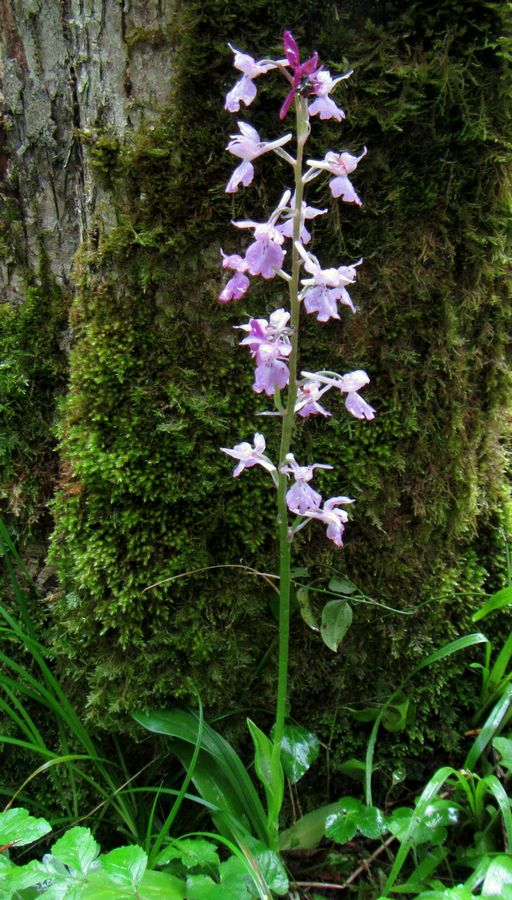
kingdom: Plantae
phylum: Tracheophyta
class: Liliopsida
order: Asparagales
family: Orchidaceae
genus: Orchis
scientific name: Orchis mascula
